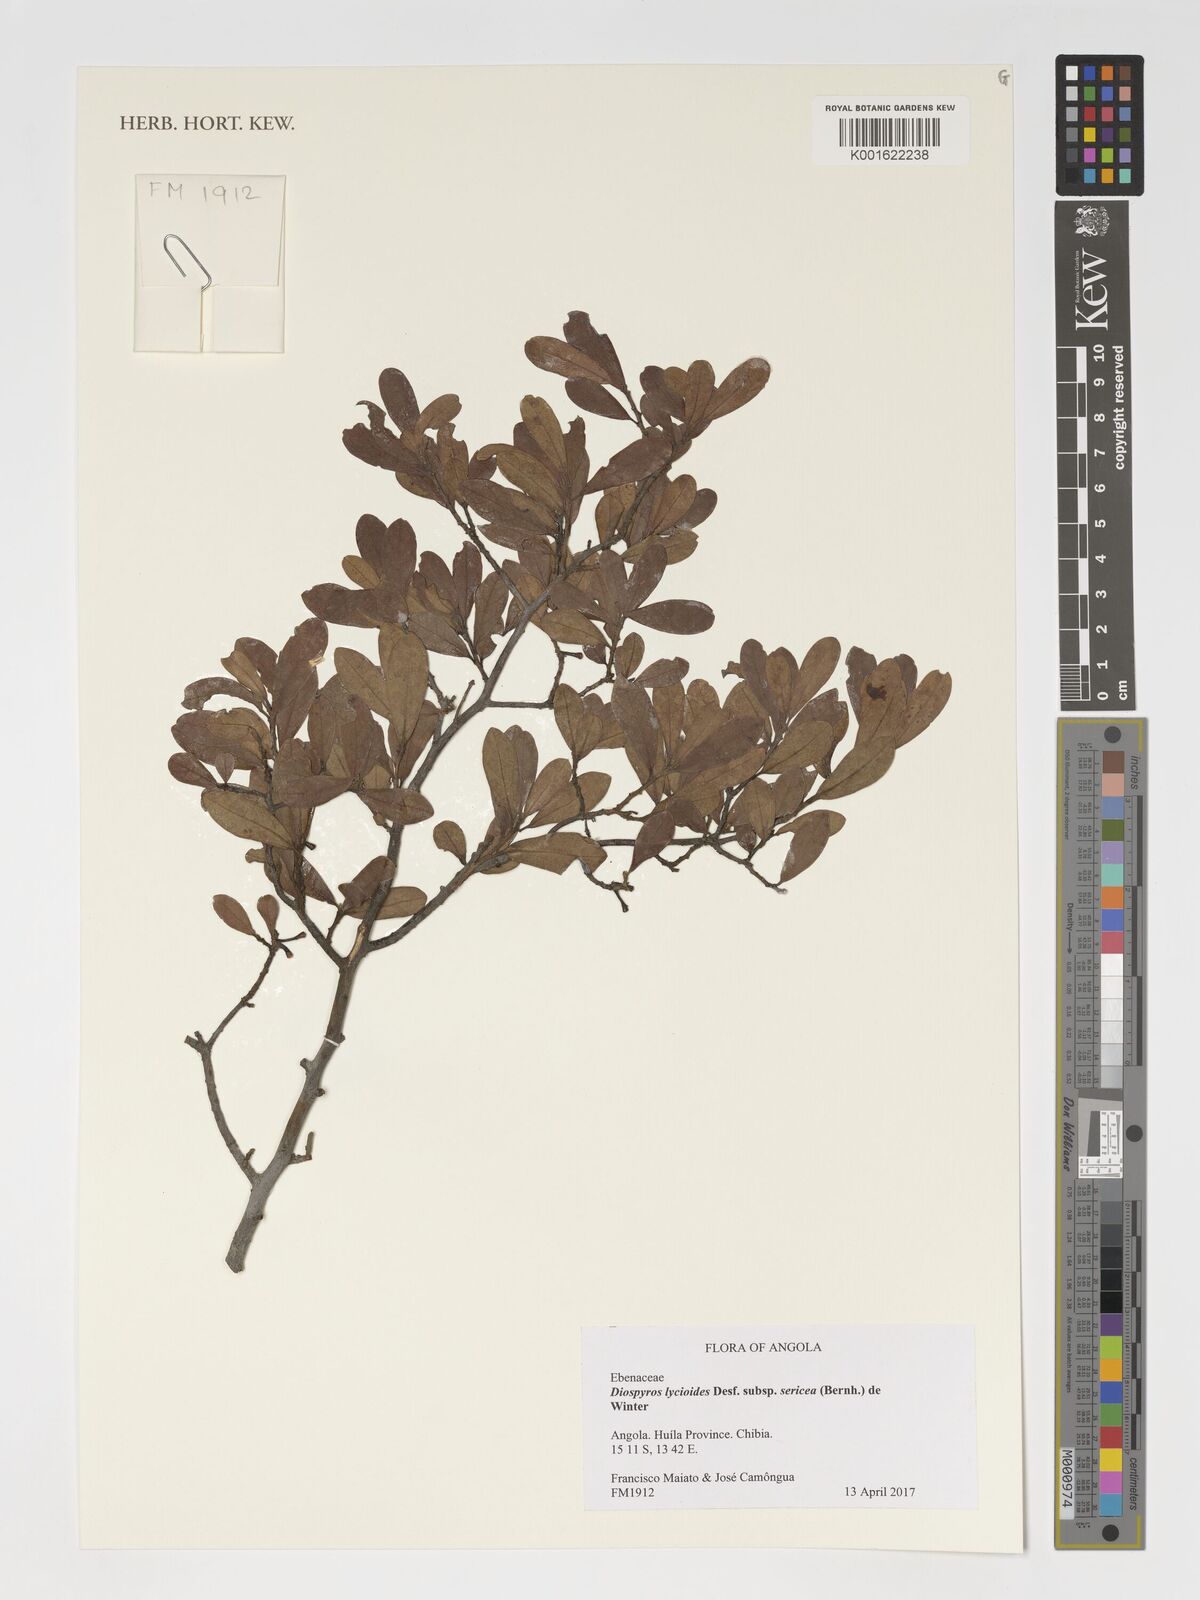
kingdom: Plantae
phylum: Tracheophyta
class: Magnoliopsida
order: Ericales
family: Ebenaceae
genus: Diospyros
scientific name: Diospyros lycioides
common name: Red star apple
